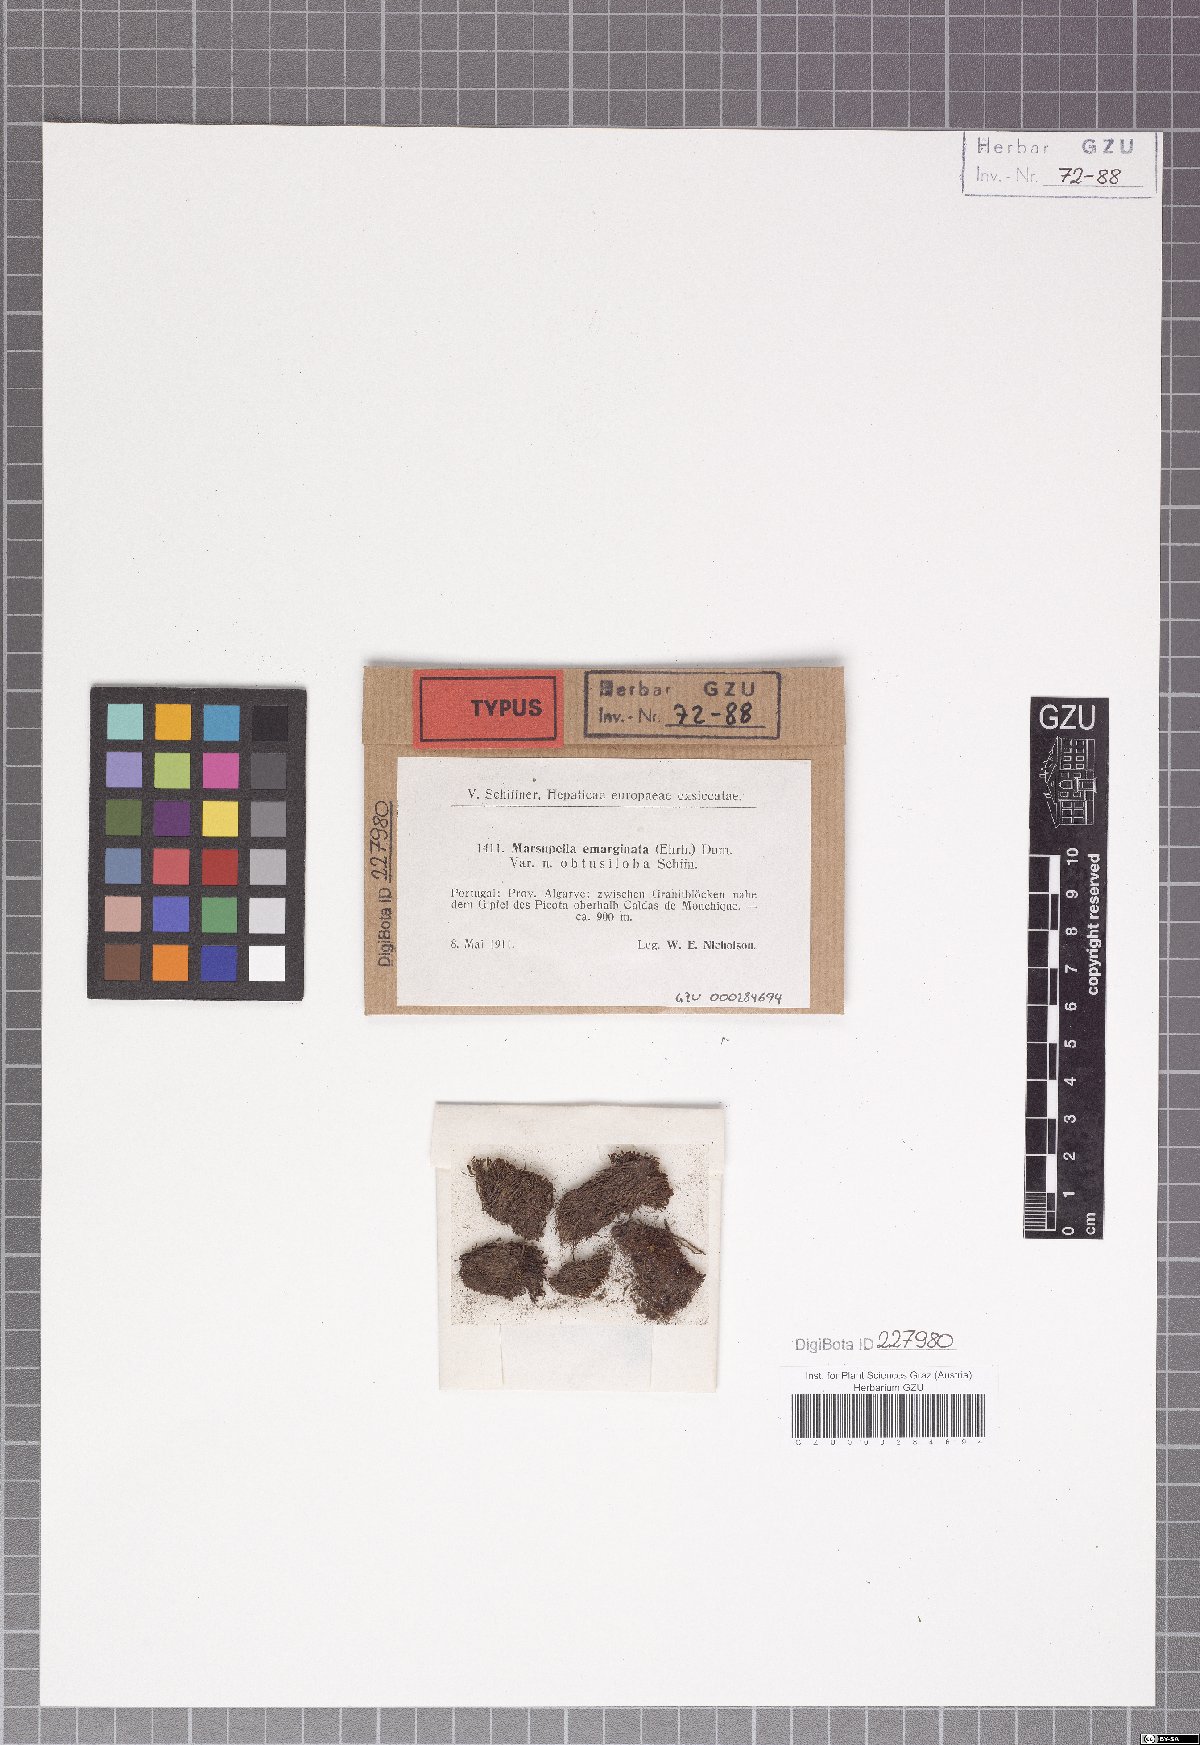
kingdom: Plantae
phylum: Marchantiophyta
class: Jungermanniopsida
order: Jungermanniales
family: Gymnomitriaceae
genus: Marsupella
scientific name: Marsupella emarginata
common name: Notched rustwort
